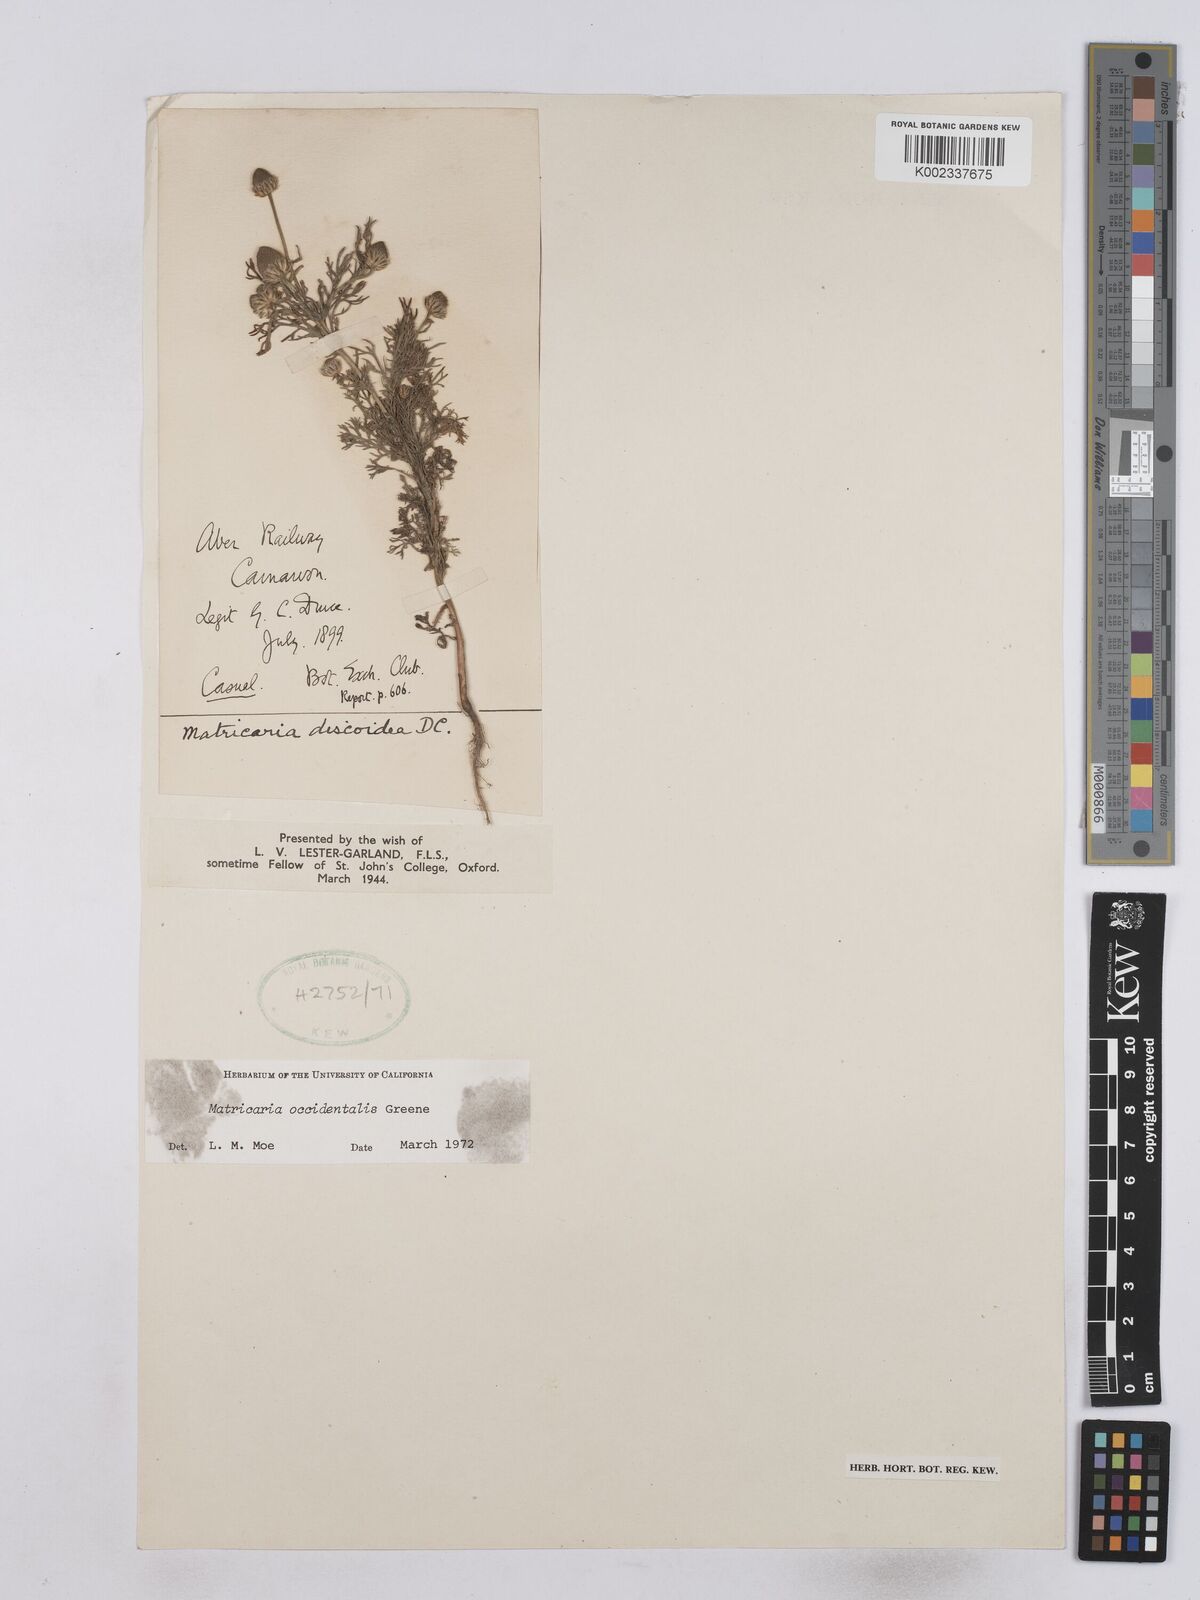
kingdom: Plantae
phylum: Tracheophyta
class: Magnoliopsida
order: Asterales
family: Asteraceae
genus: Matricaria
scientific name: Matricaria occidentalis
